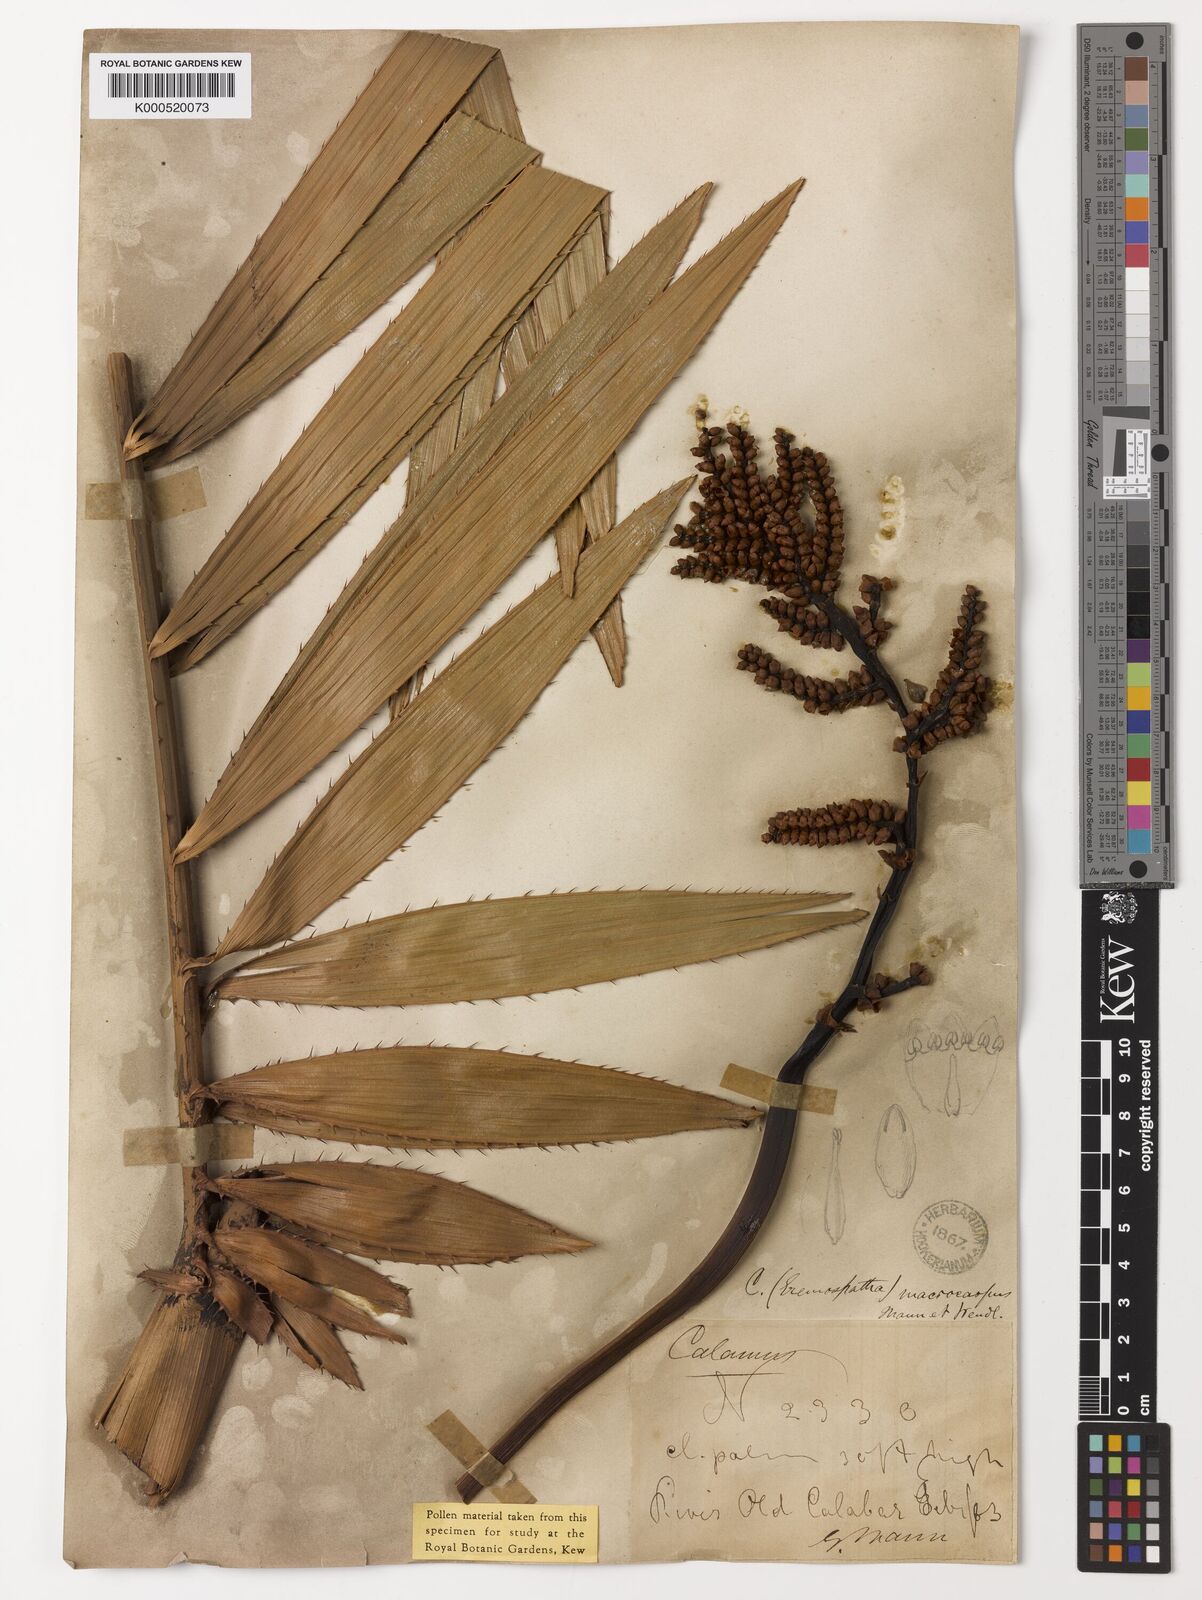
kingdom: Plantae
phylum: Tracheophyta
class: Liliopsida
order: Arecales
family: Arecaceae
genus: Eremospatha
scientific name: Eremospatha
